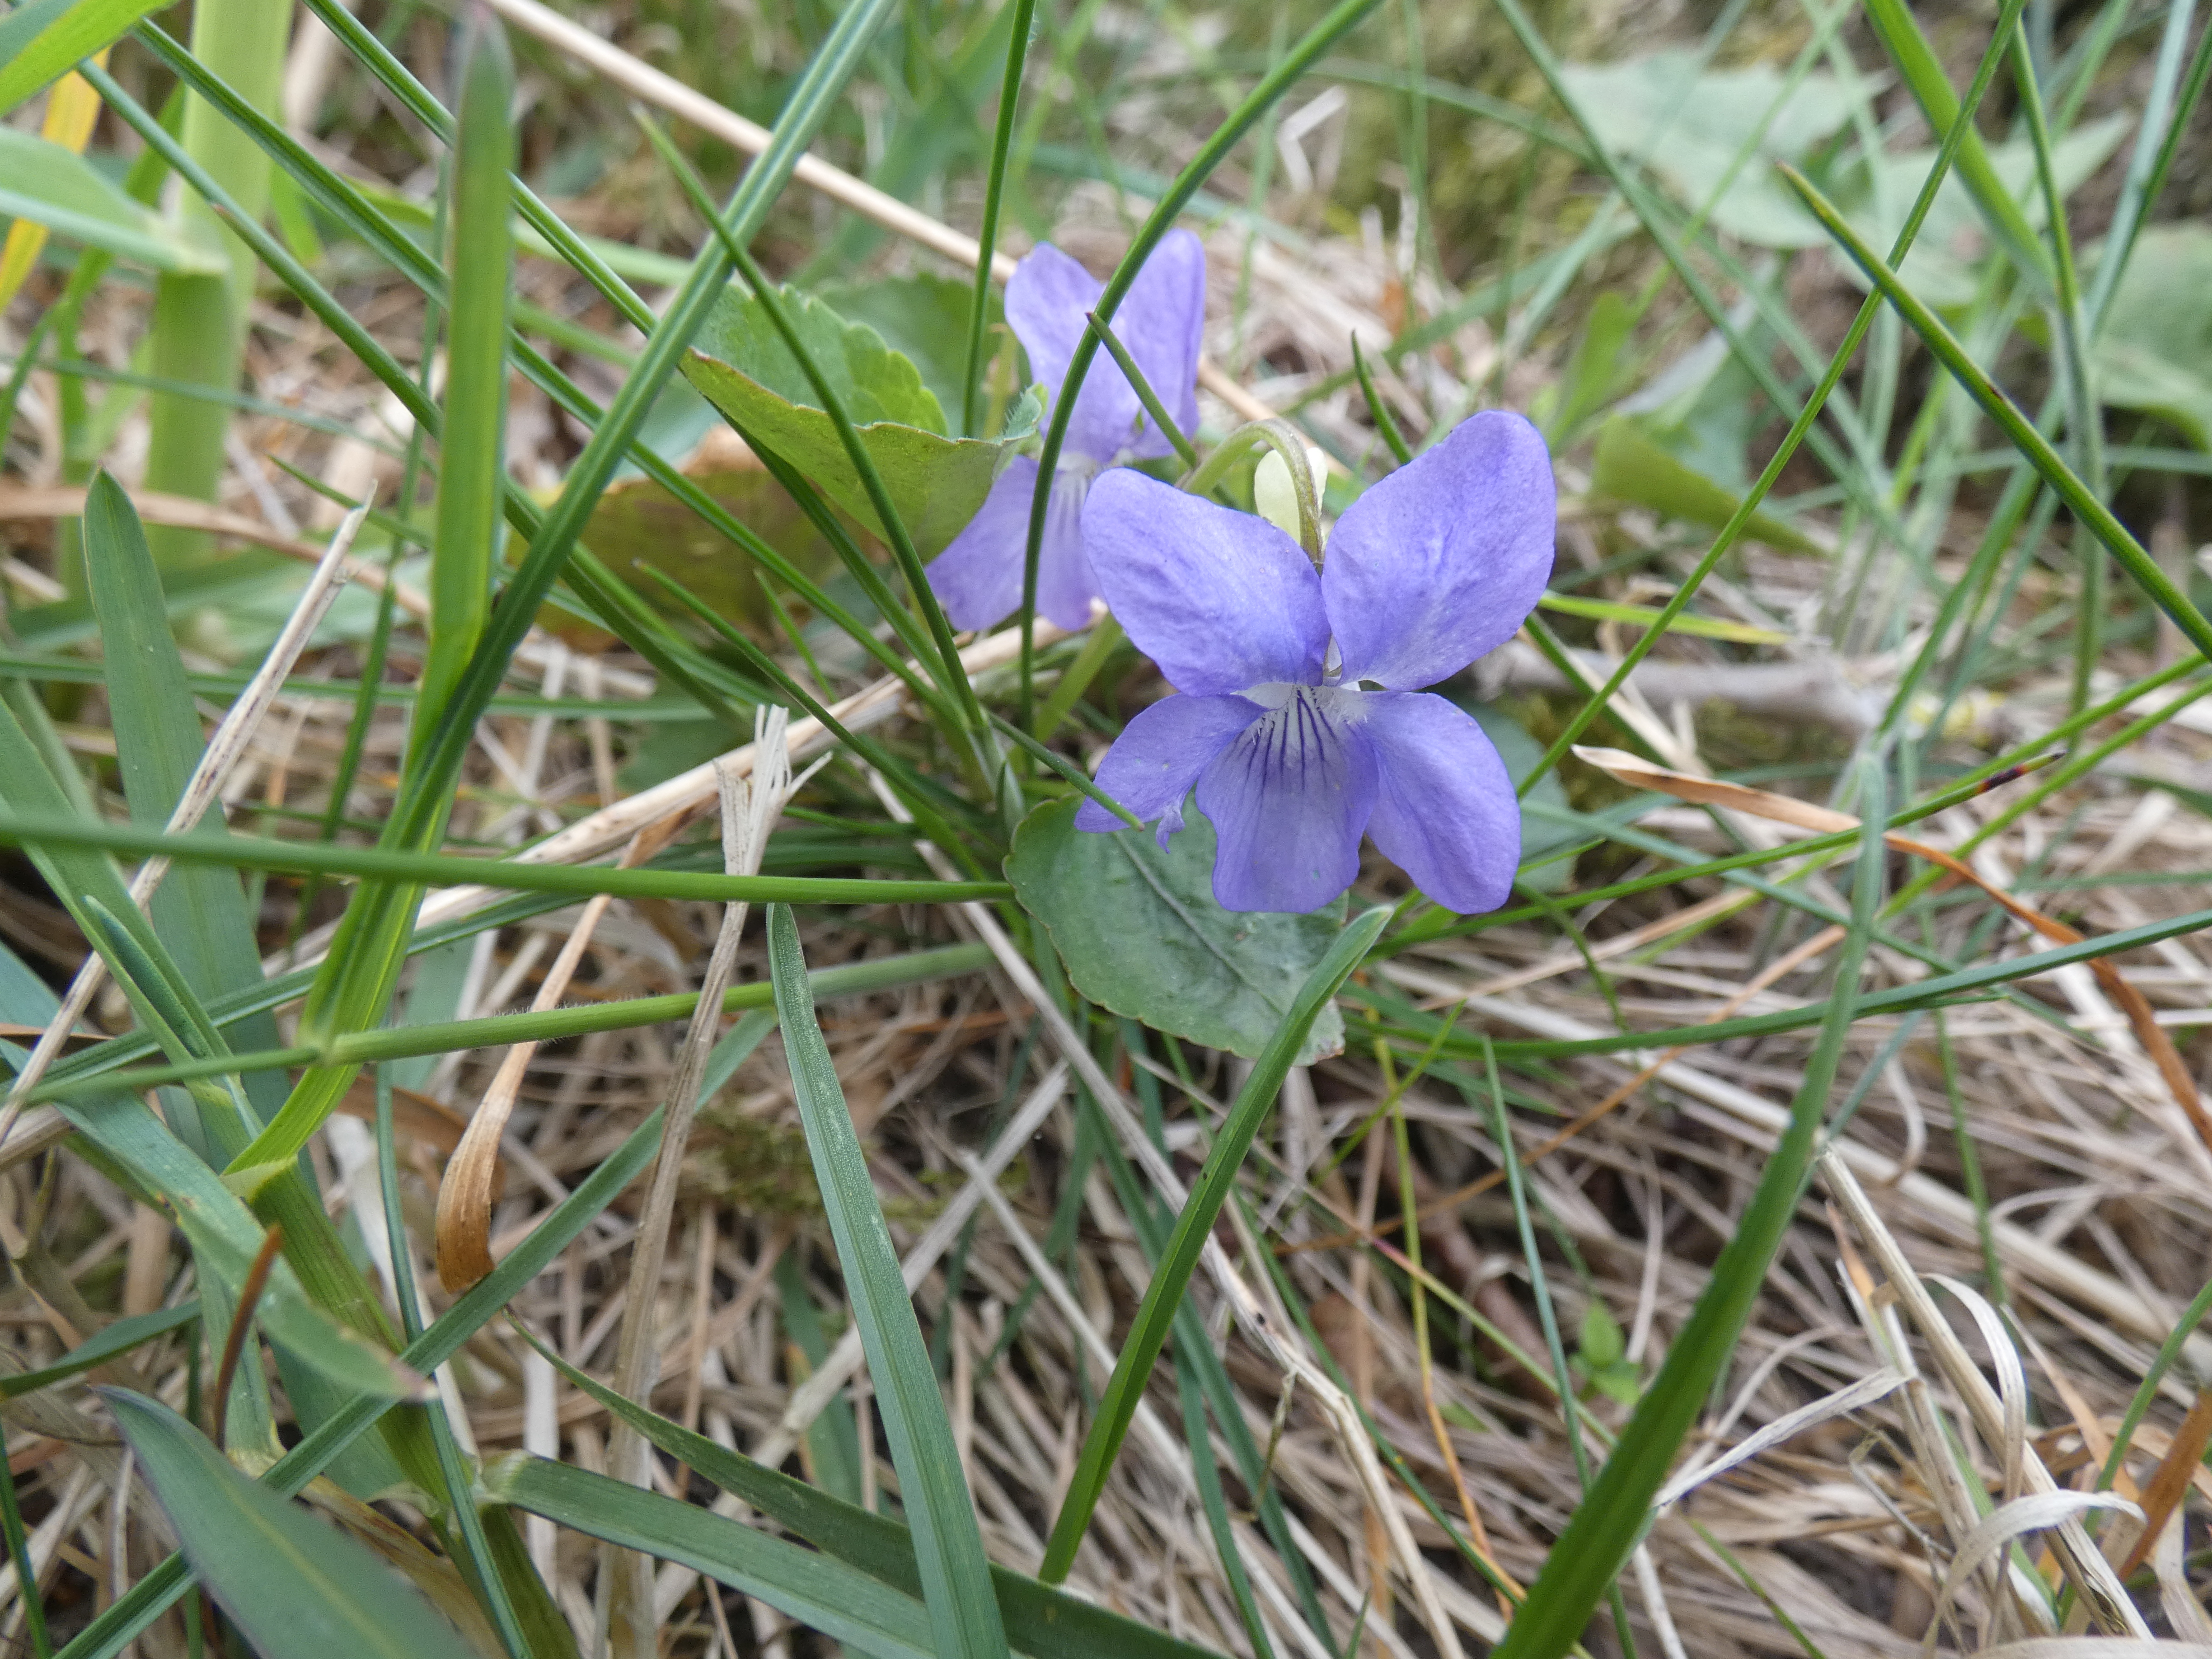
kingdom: Plantae
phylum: Tracheophyta
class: Magnoliopsida
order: Malpighiales
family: Violaceae
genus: Viola
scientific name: Viola riviniana
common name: Krat-viol
